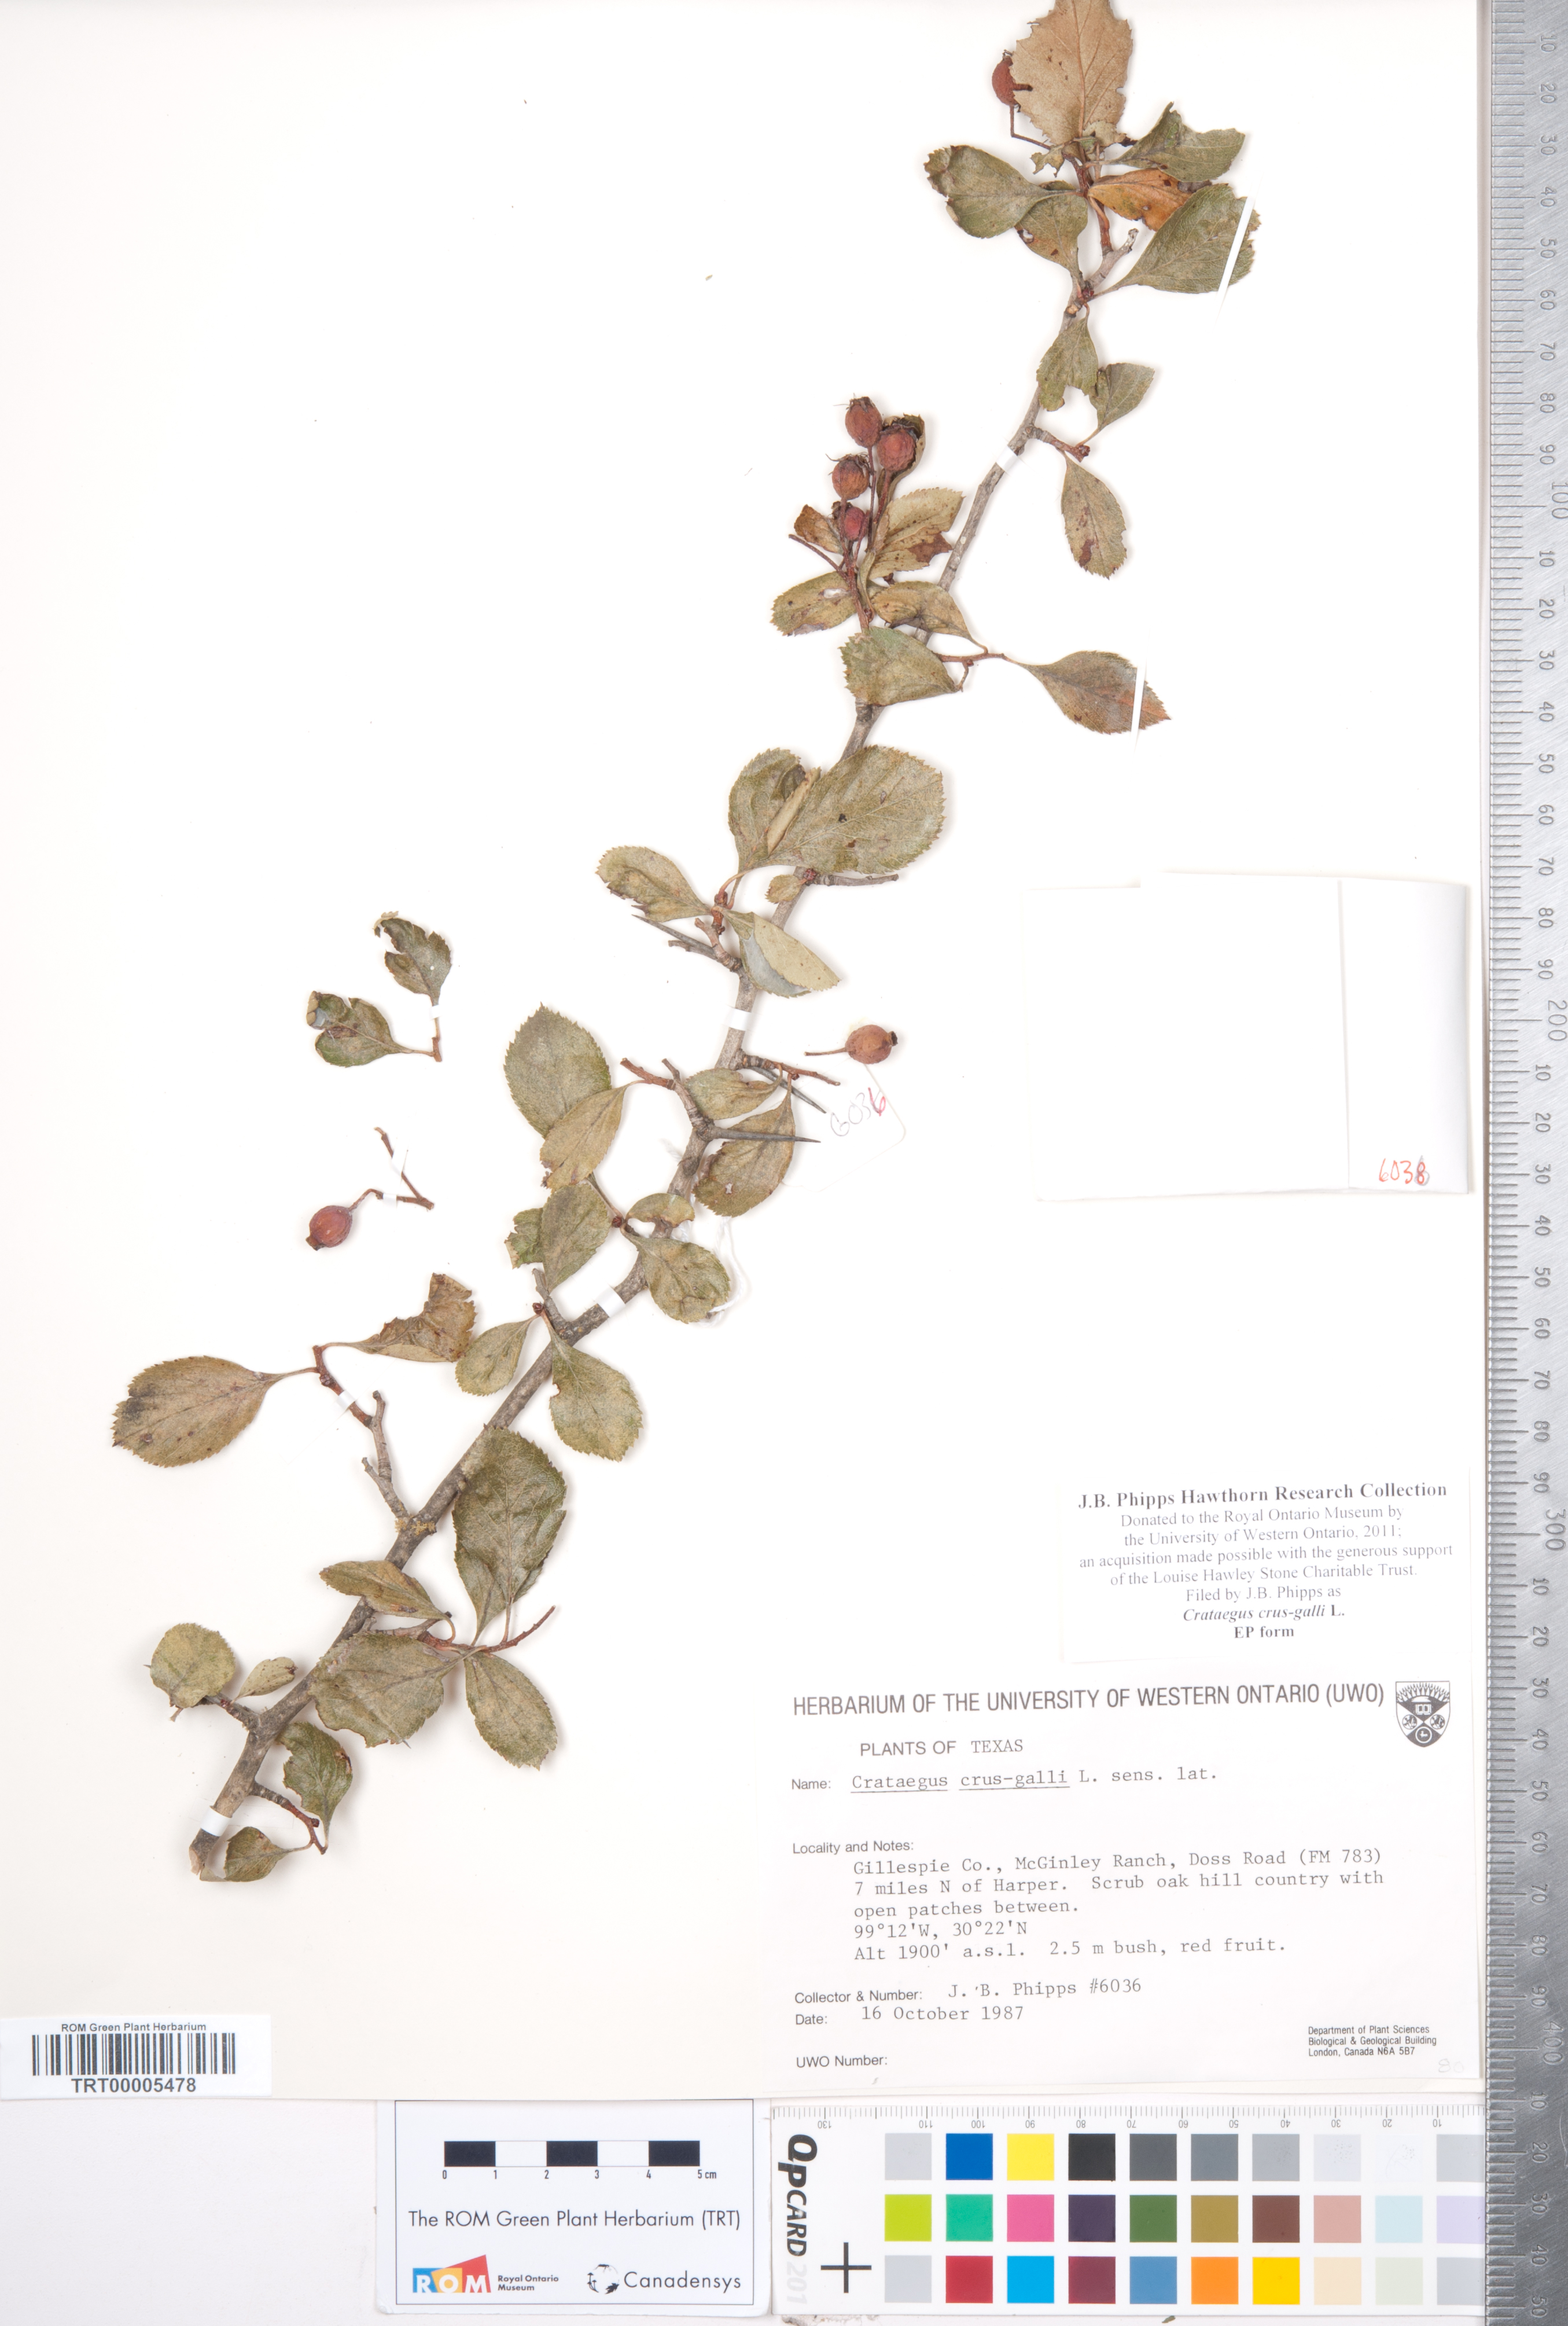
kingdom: Plantae
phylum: Tracheophyta
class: Magnoliopsida
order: Rosales
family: Rosaceae
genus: Crataegus
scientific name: Crataegus crus-galli
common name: Cockspurthorn
